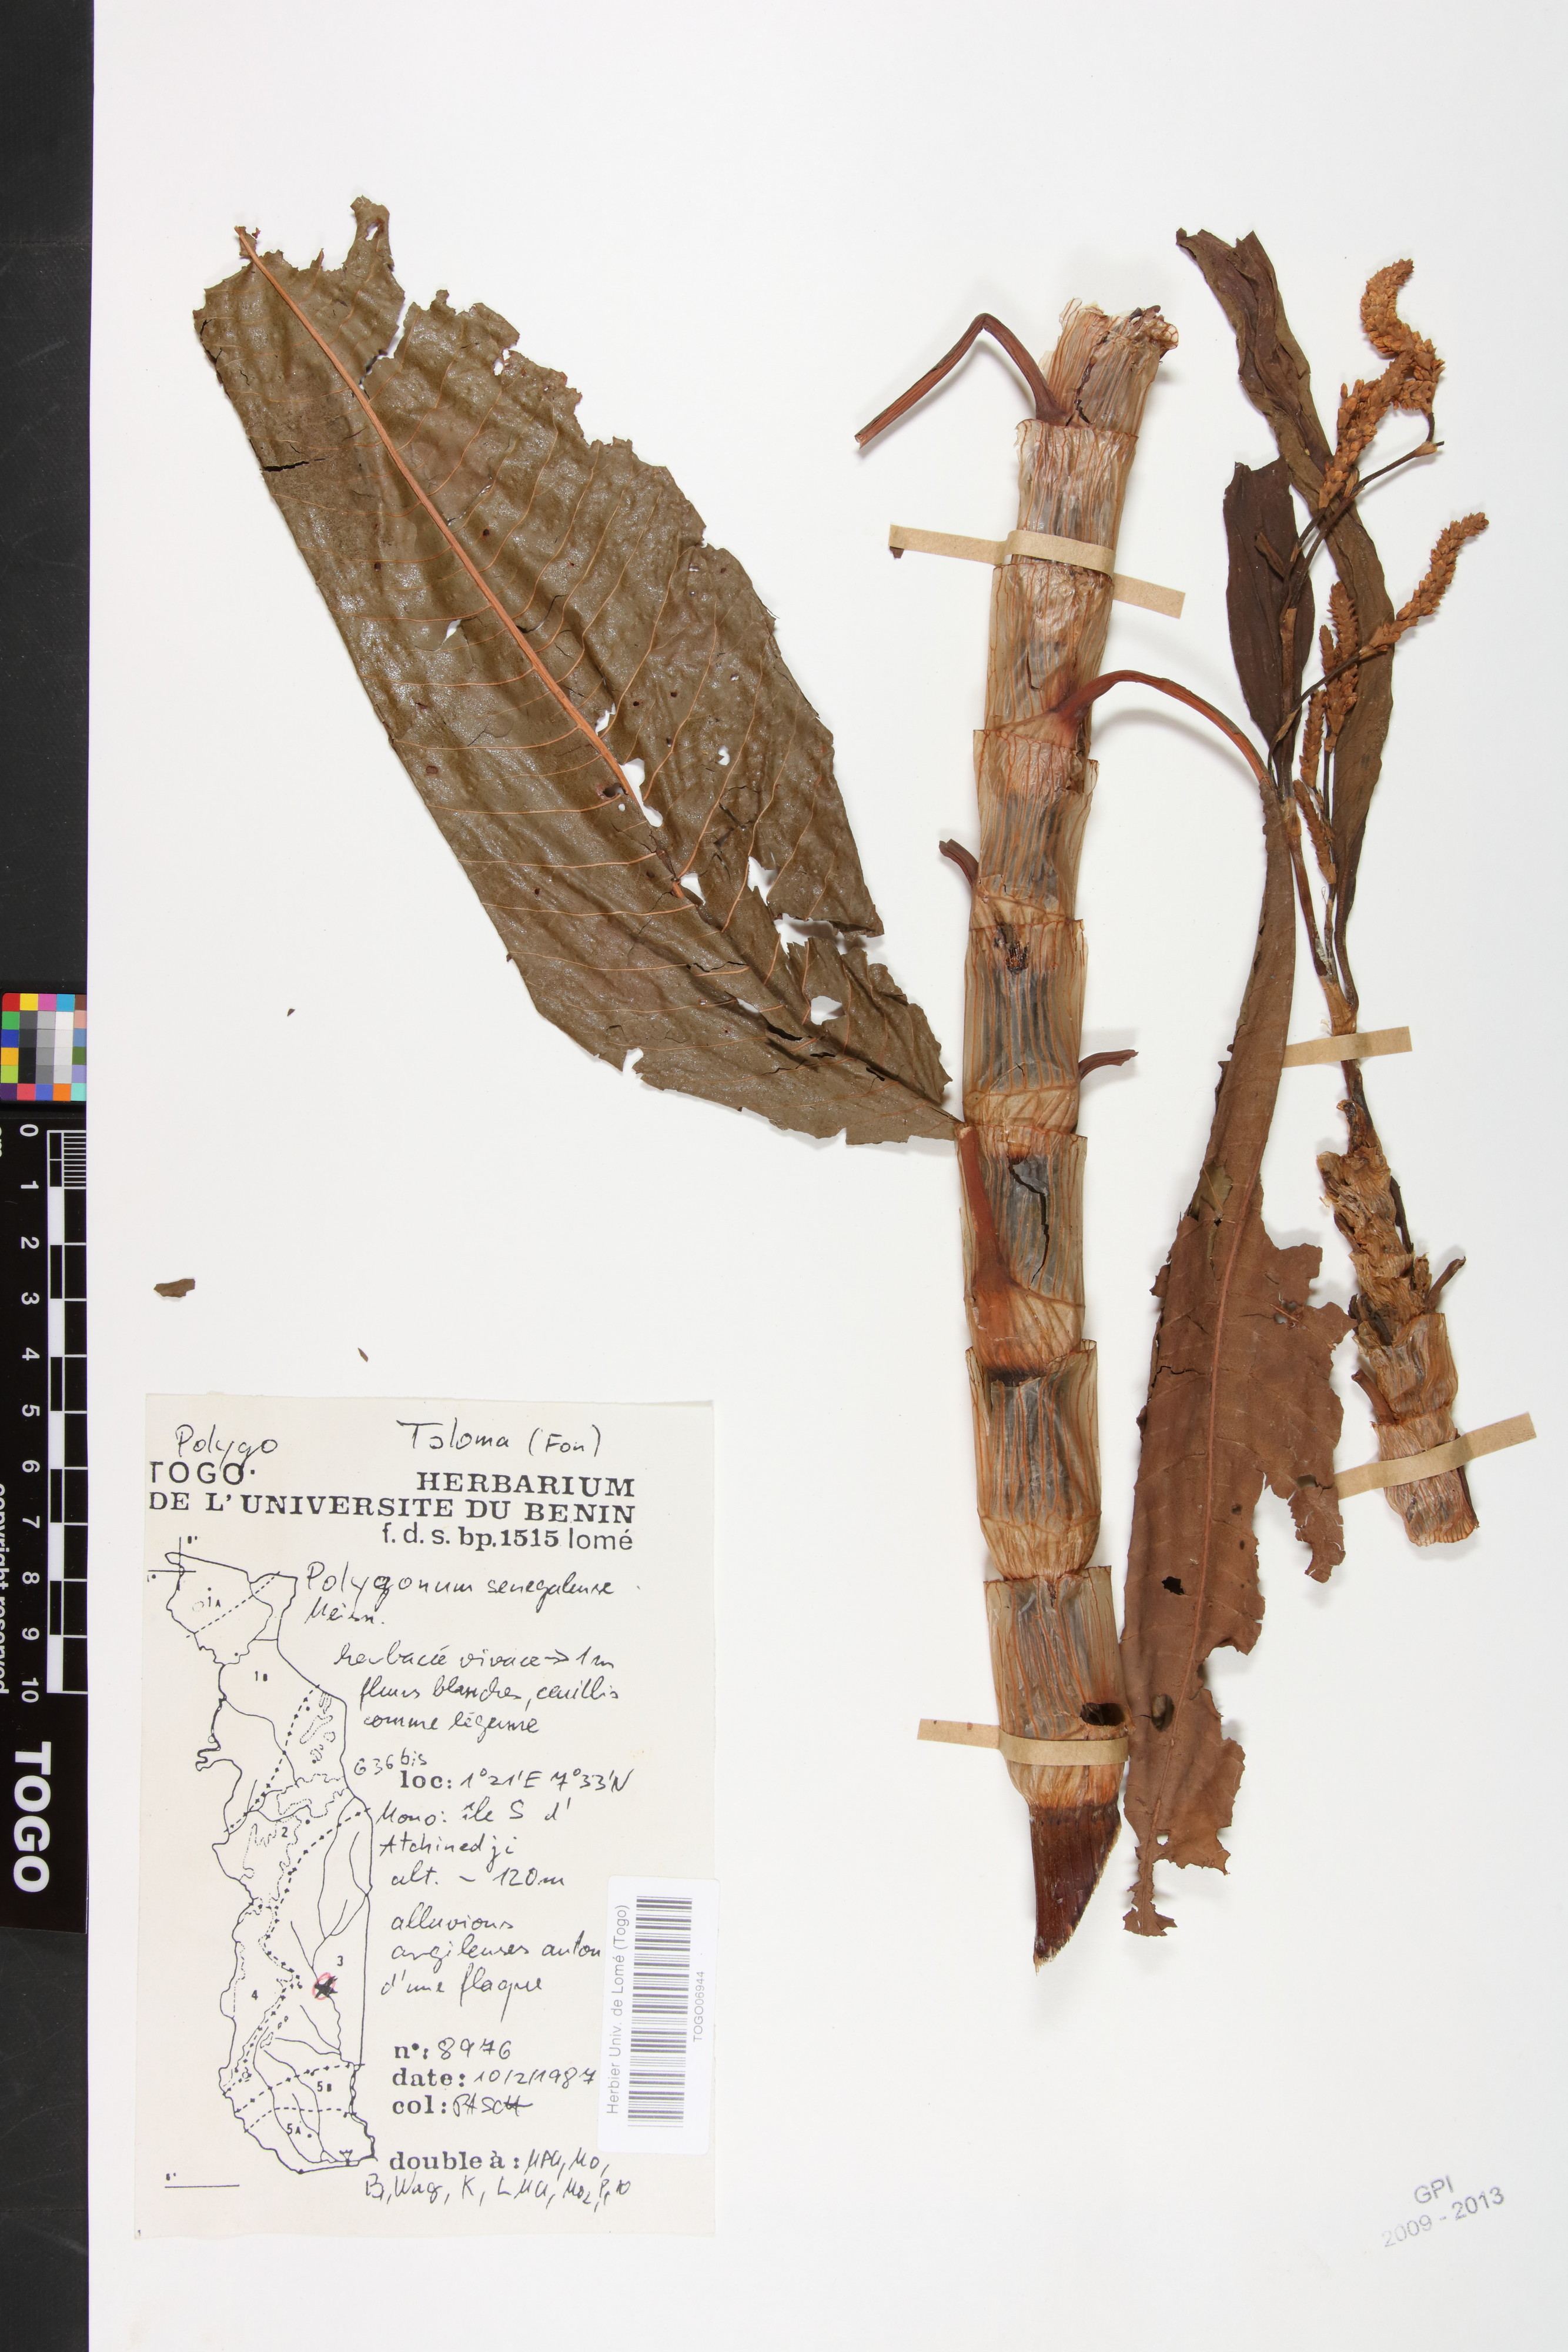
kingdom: Plantae
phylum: Tracheophyta
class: Magnoliopsida
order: Caryophyllales
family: Polygonaceae
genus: Persicaria
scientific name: Persicaria senegalensis
